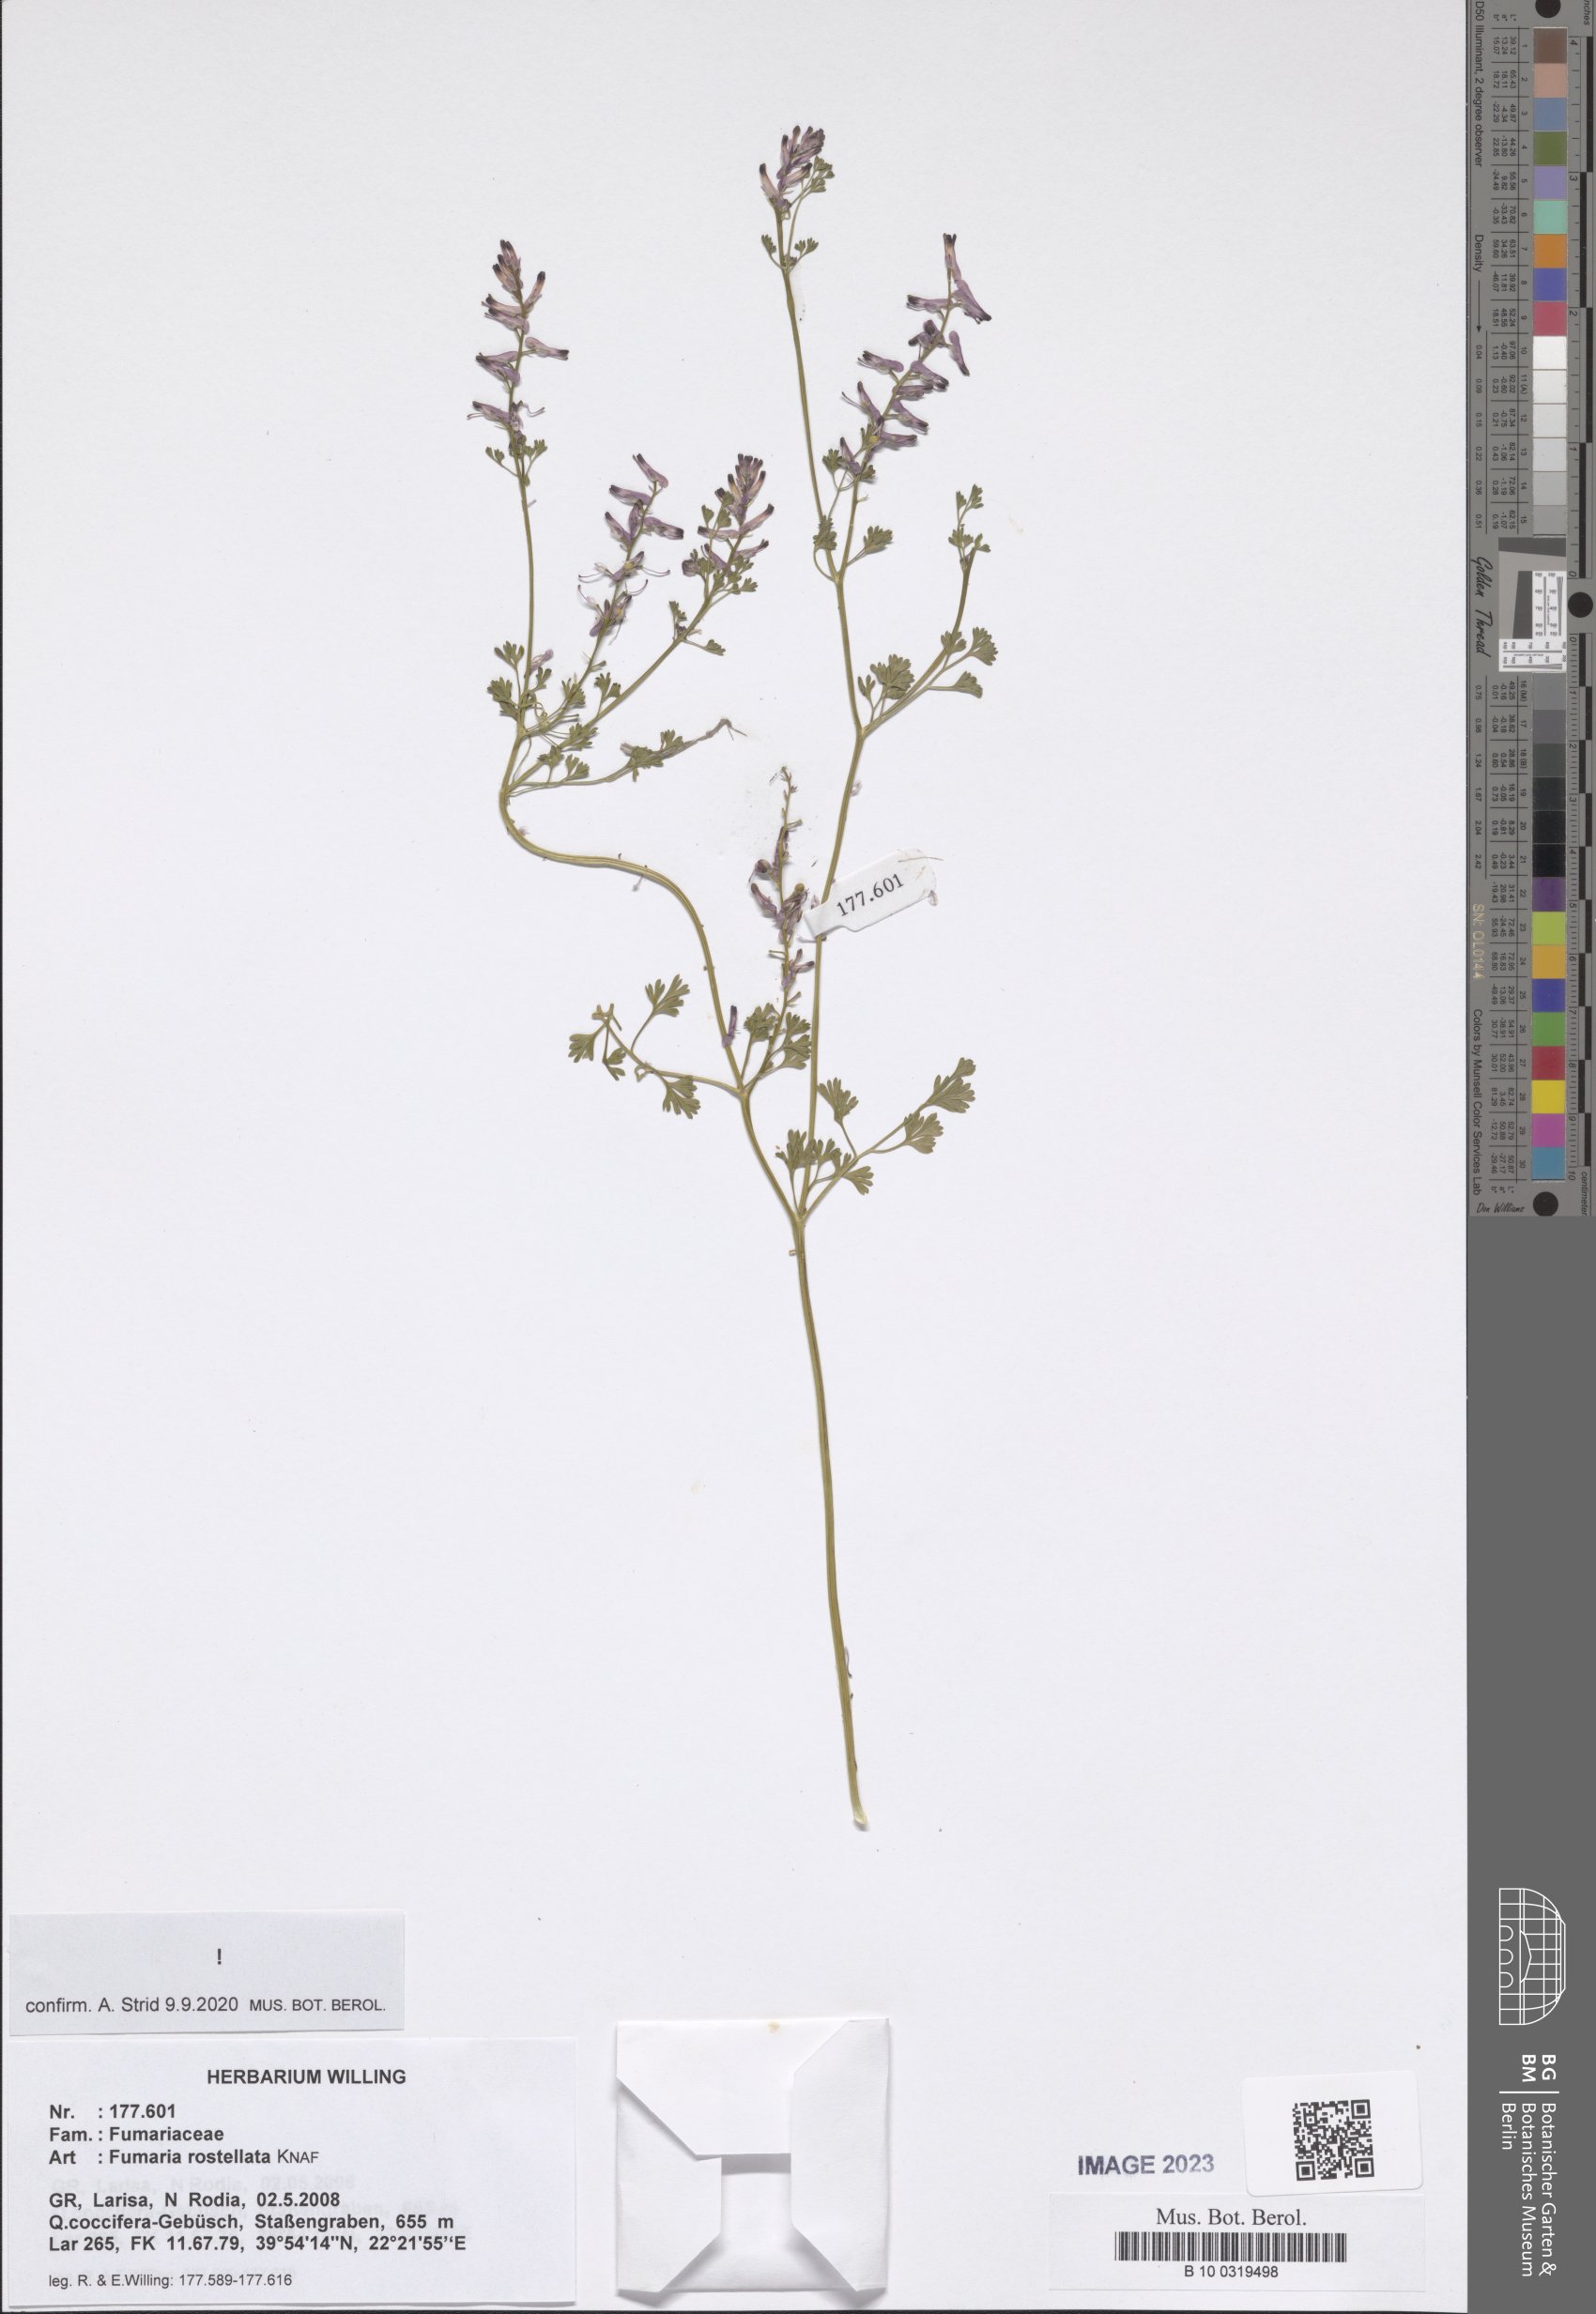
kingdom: Plantae
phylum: Tracheophyta
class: Magnoliopsida
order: Ranunculales
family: Papaveraceae
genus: Fumaria
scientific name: Fumaria rostellata
